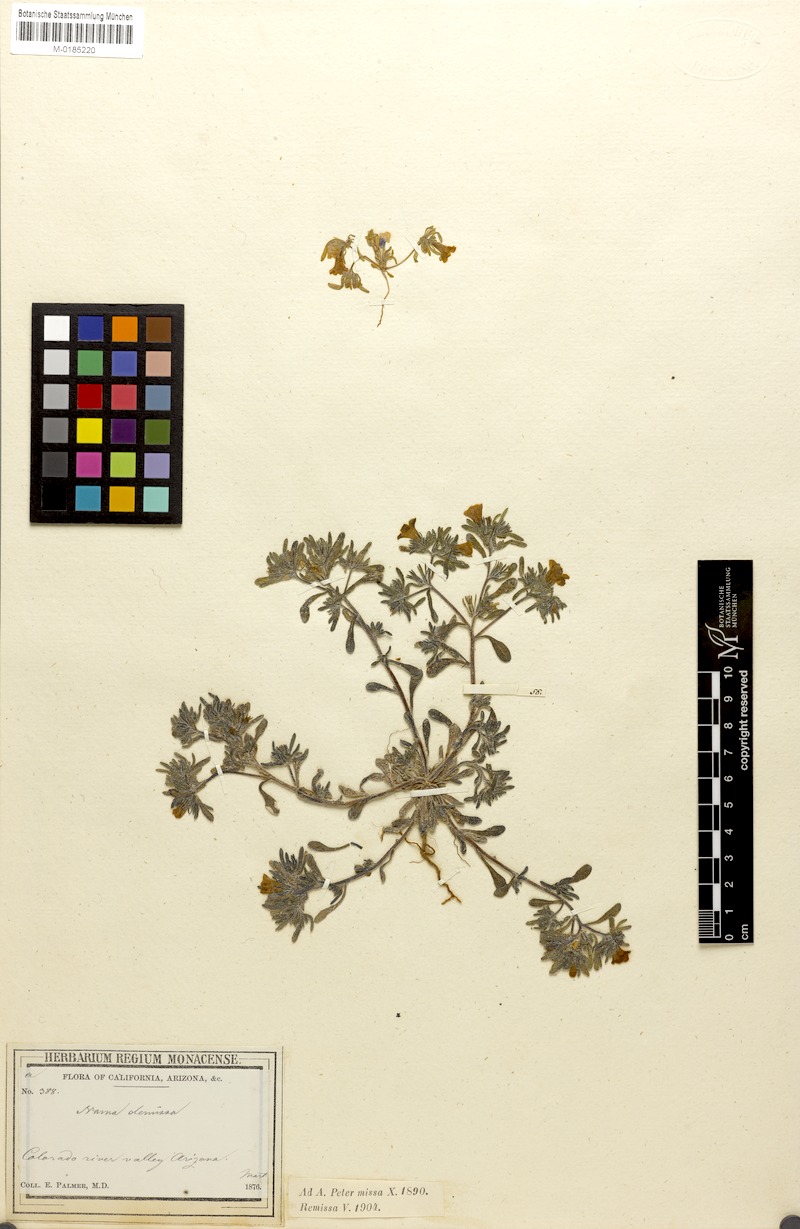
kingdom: Plantae
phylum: Tracheophyta
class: Magnoliopsida
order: Boraginales
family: Namaceae
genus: Nama
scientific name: Nama demissa
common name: Leafy nama
